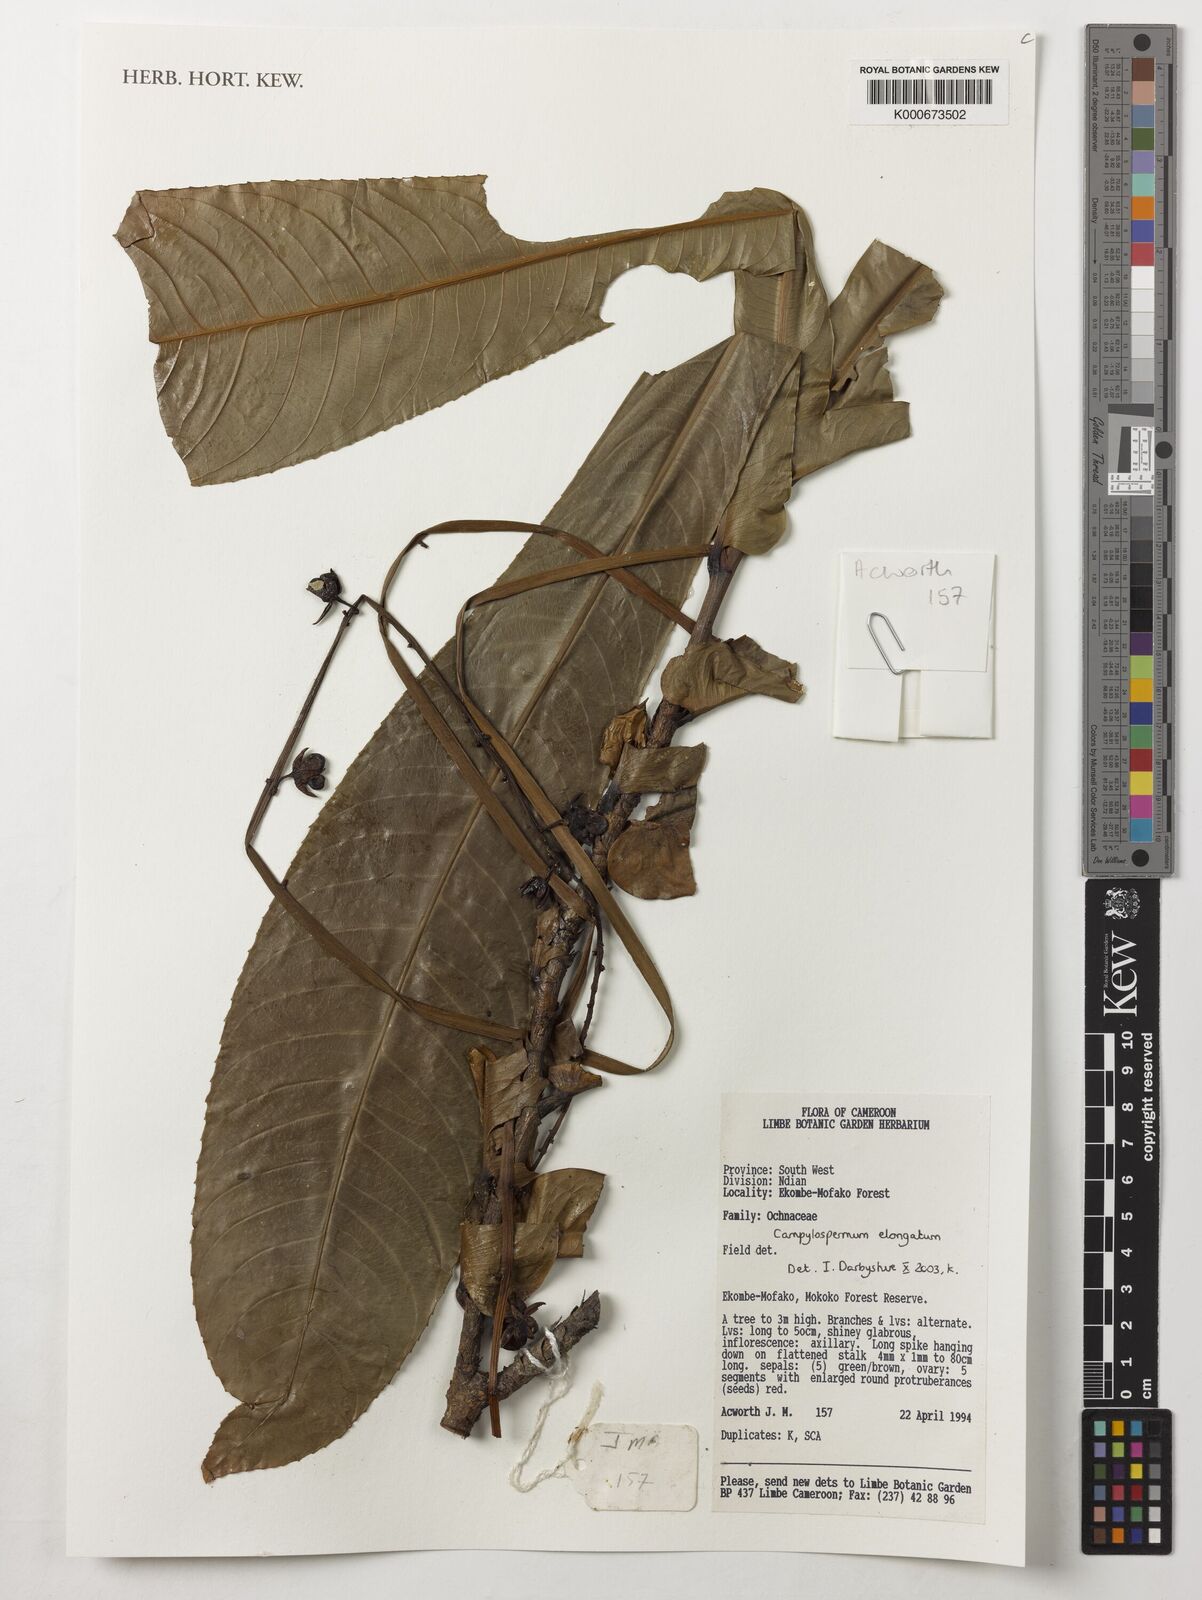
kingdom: Plantae
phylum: Tracheophyta
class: Magnoliopsida
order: Malpighiales
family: Ochnaceae
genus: Gomphia
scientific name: Gomphia elongata
